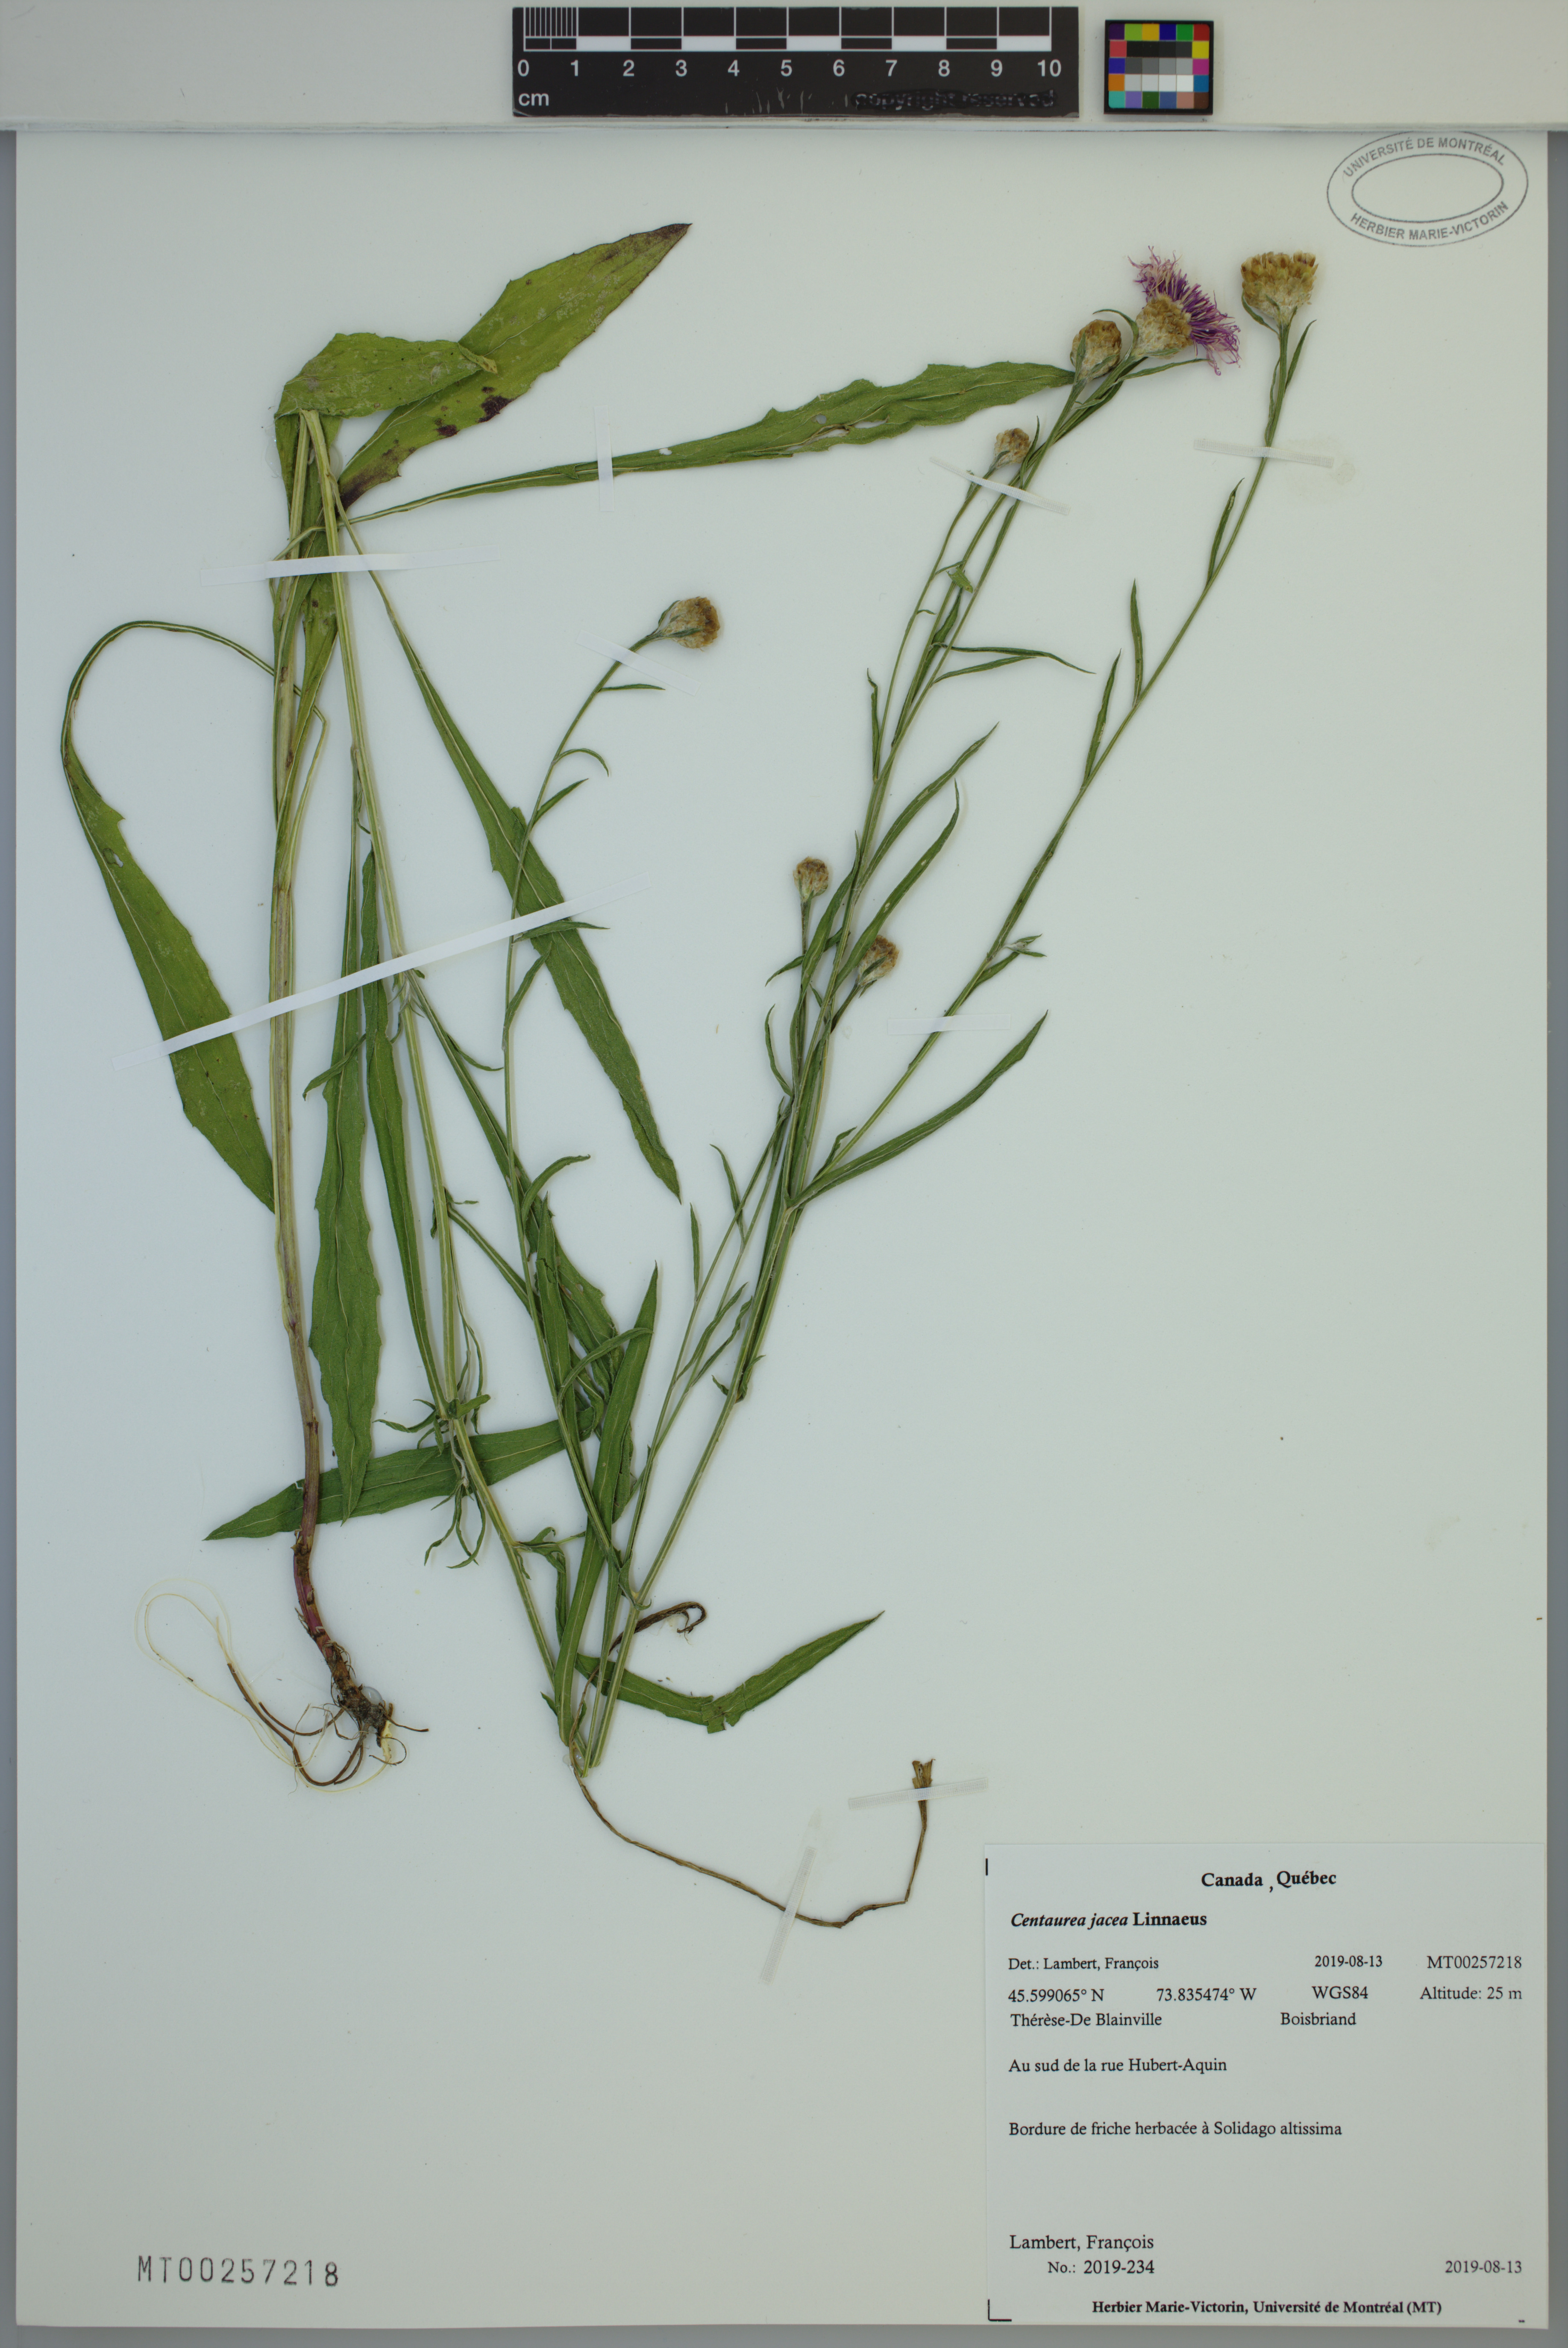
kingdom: Plantae
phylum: Tracheophyta
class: Magnoliopsida
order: Asterales
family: Asteraceae
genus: Centaurea
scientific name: Centaurea jacea
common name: Brown knapweed
